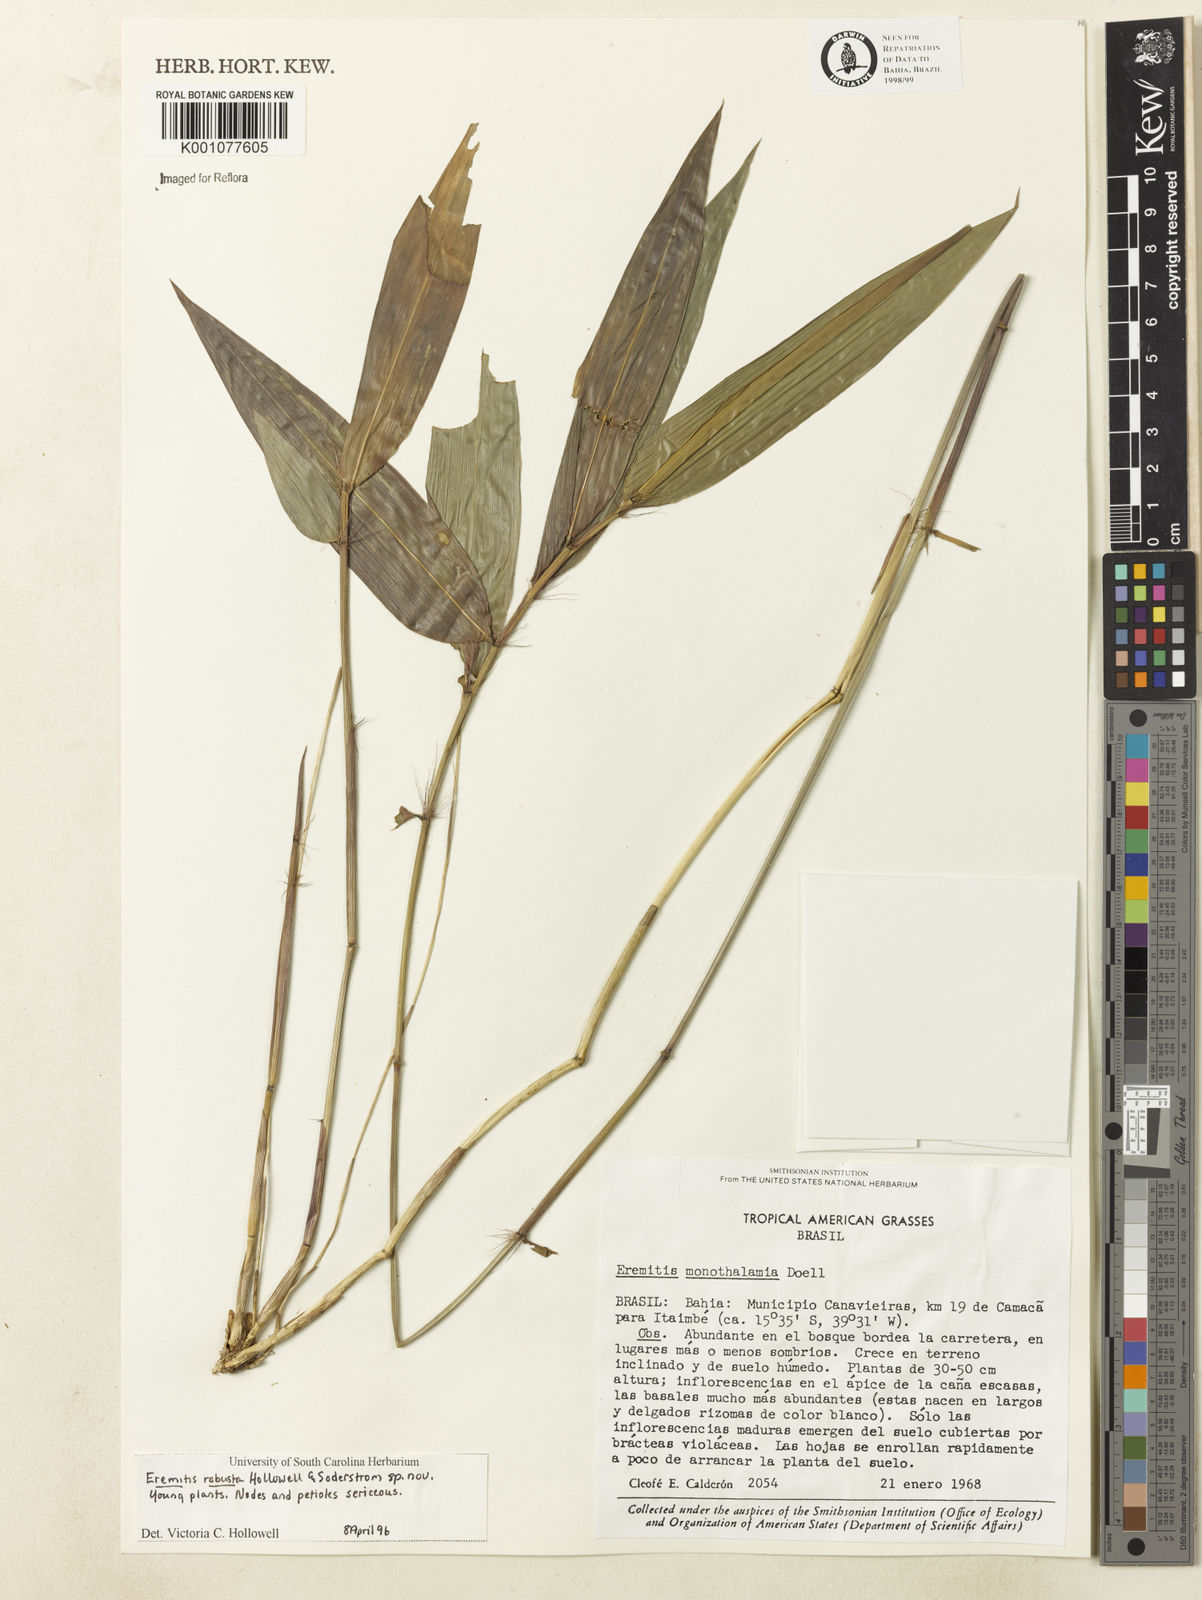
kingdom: Plantae
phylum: Tracheophyta
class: Liliopsida
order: Poales
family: Poaceae
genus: Eremitis
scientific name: Eremitis
